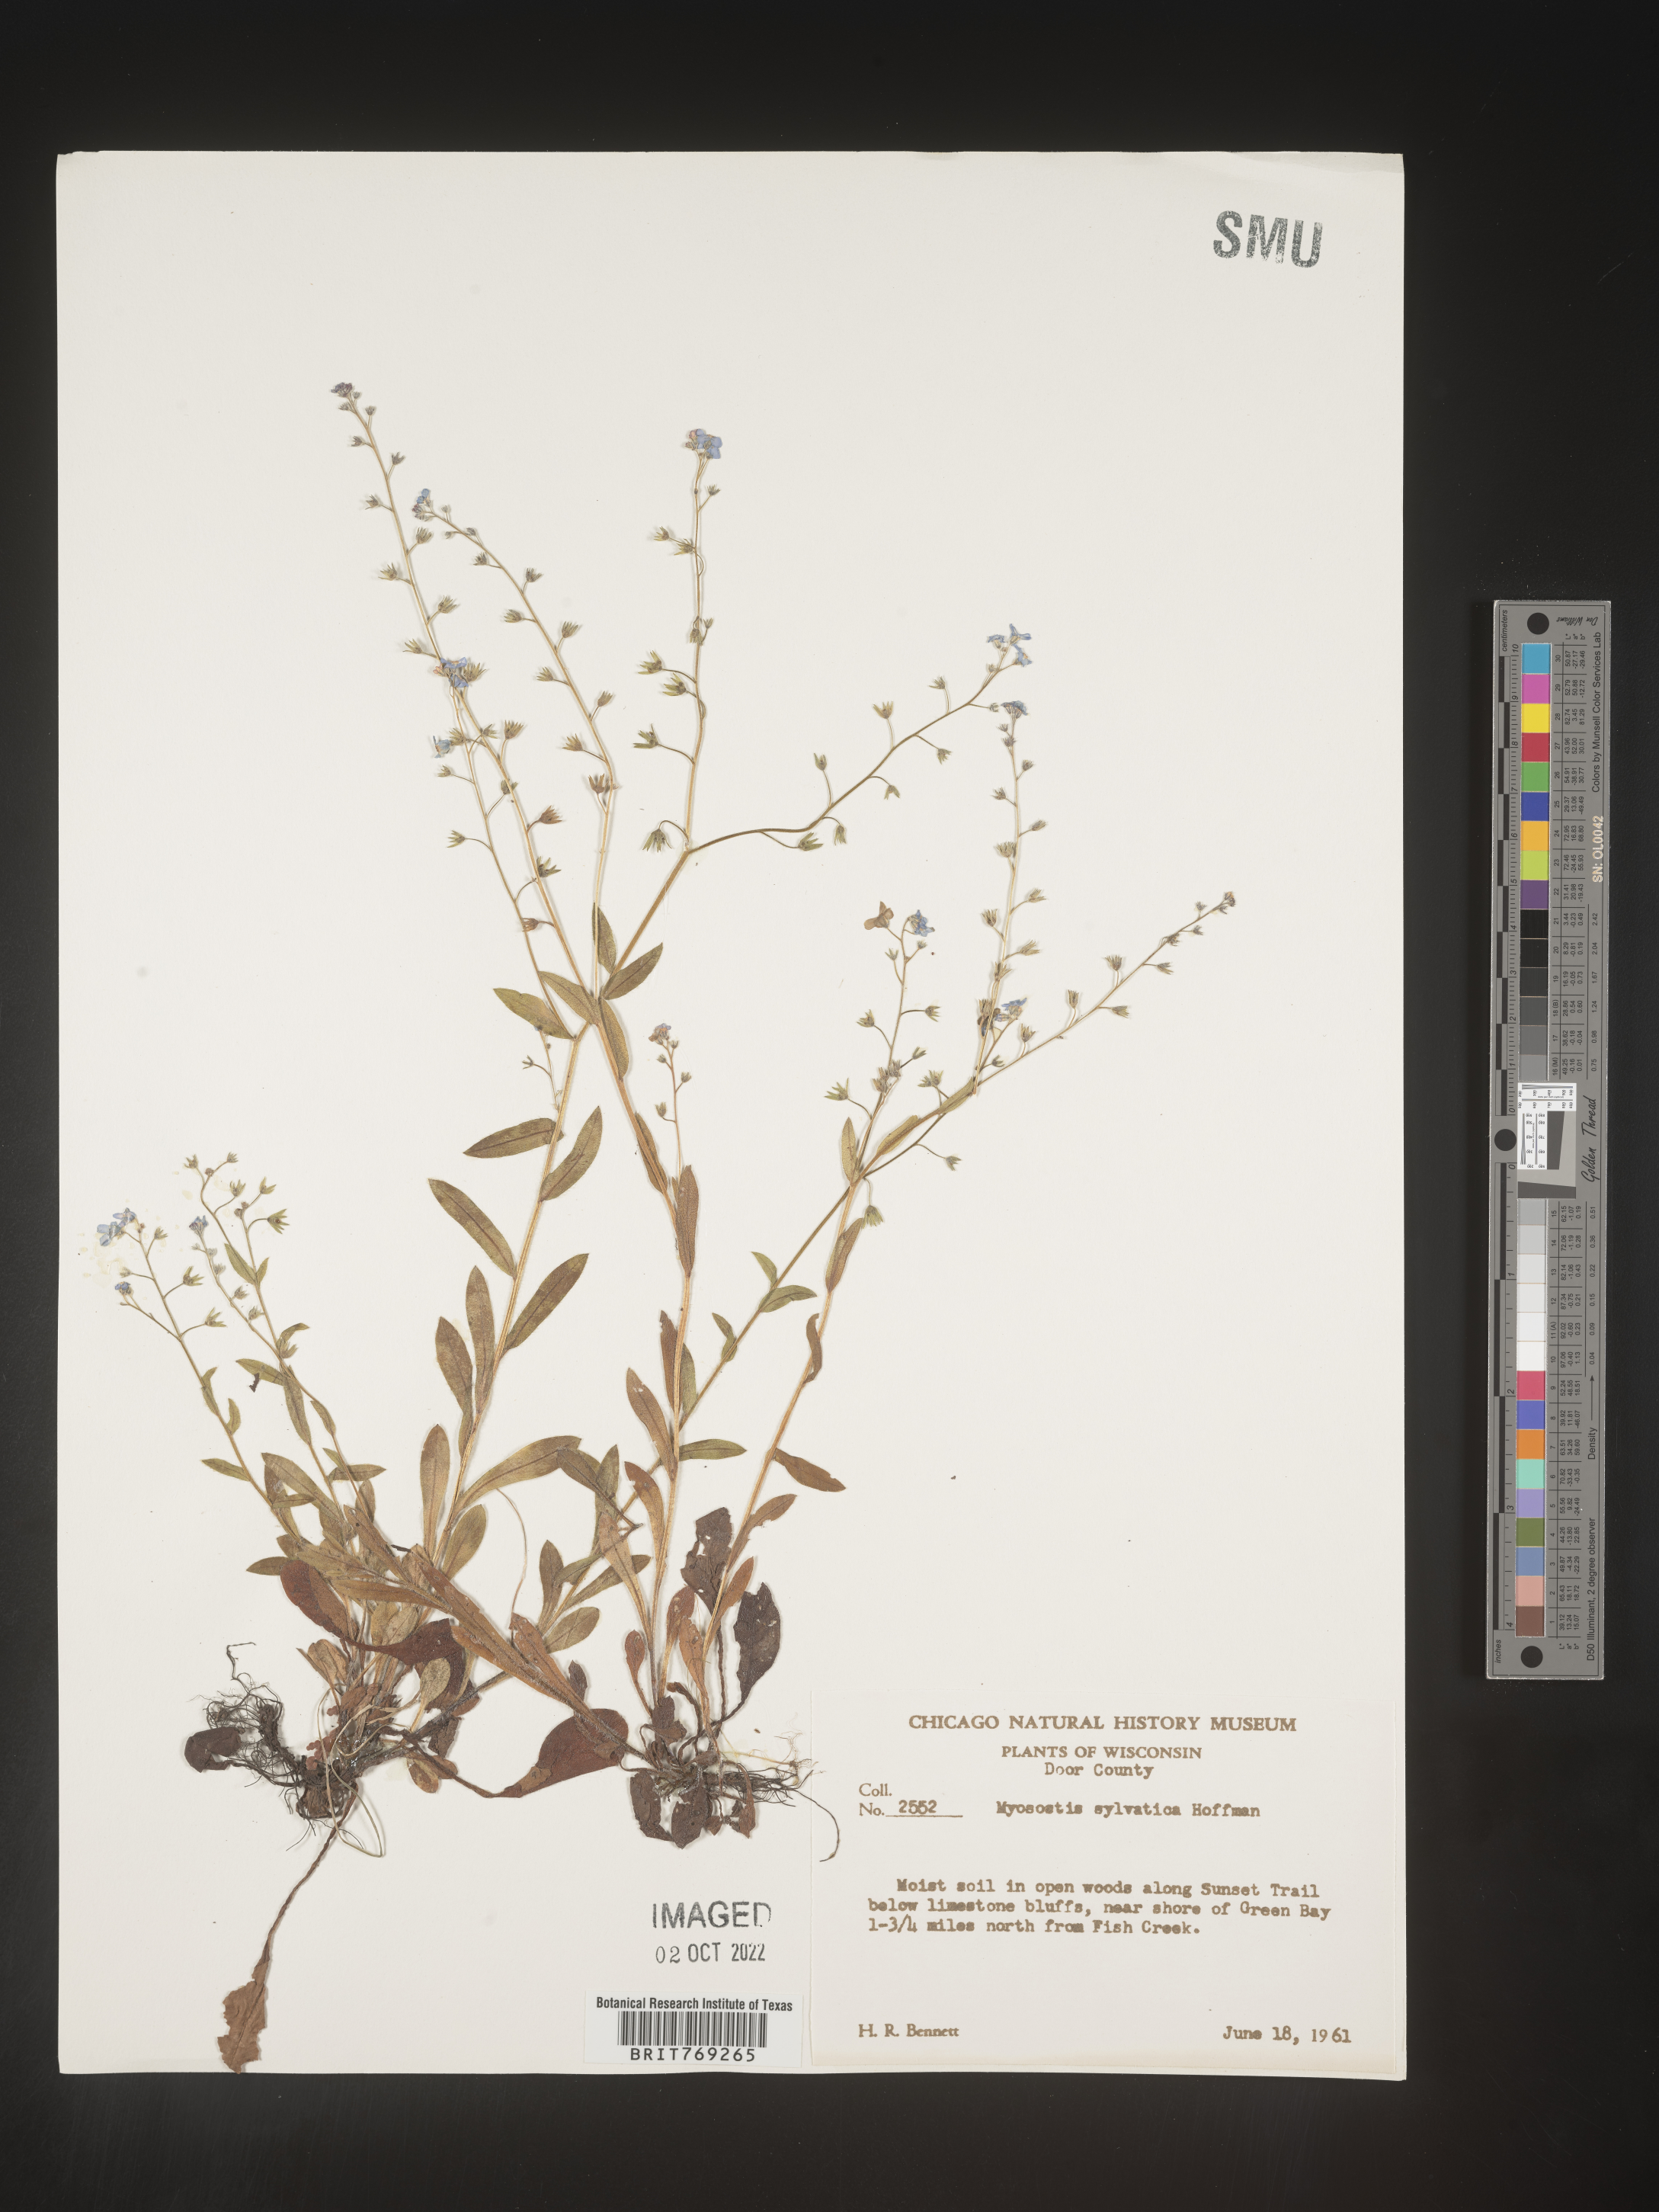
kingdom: Plantae
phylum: Tracheophyta
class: Magnoliopsida
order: Boraginales
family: Boraginaceae
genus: Myosotis
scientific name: Myosotis sylvatica
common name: Wood forget-me-not
